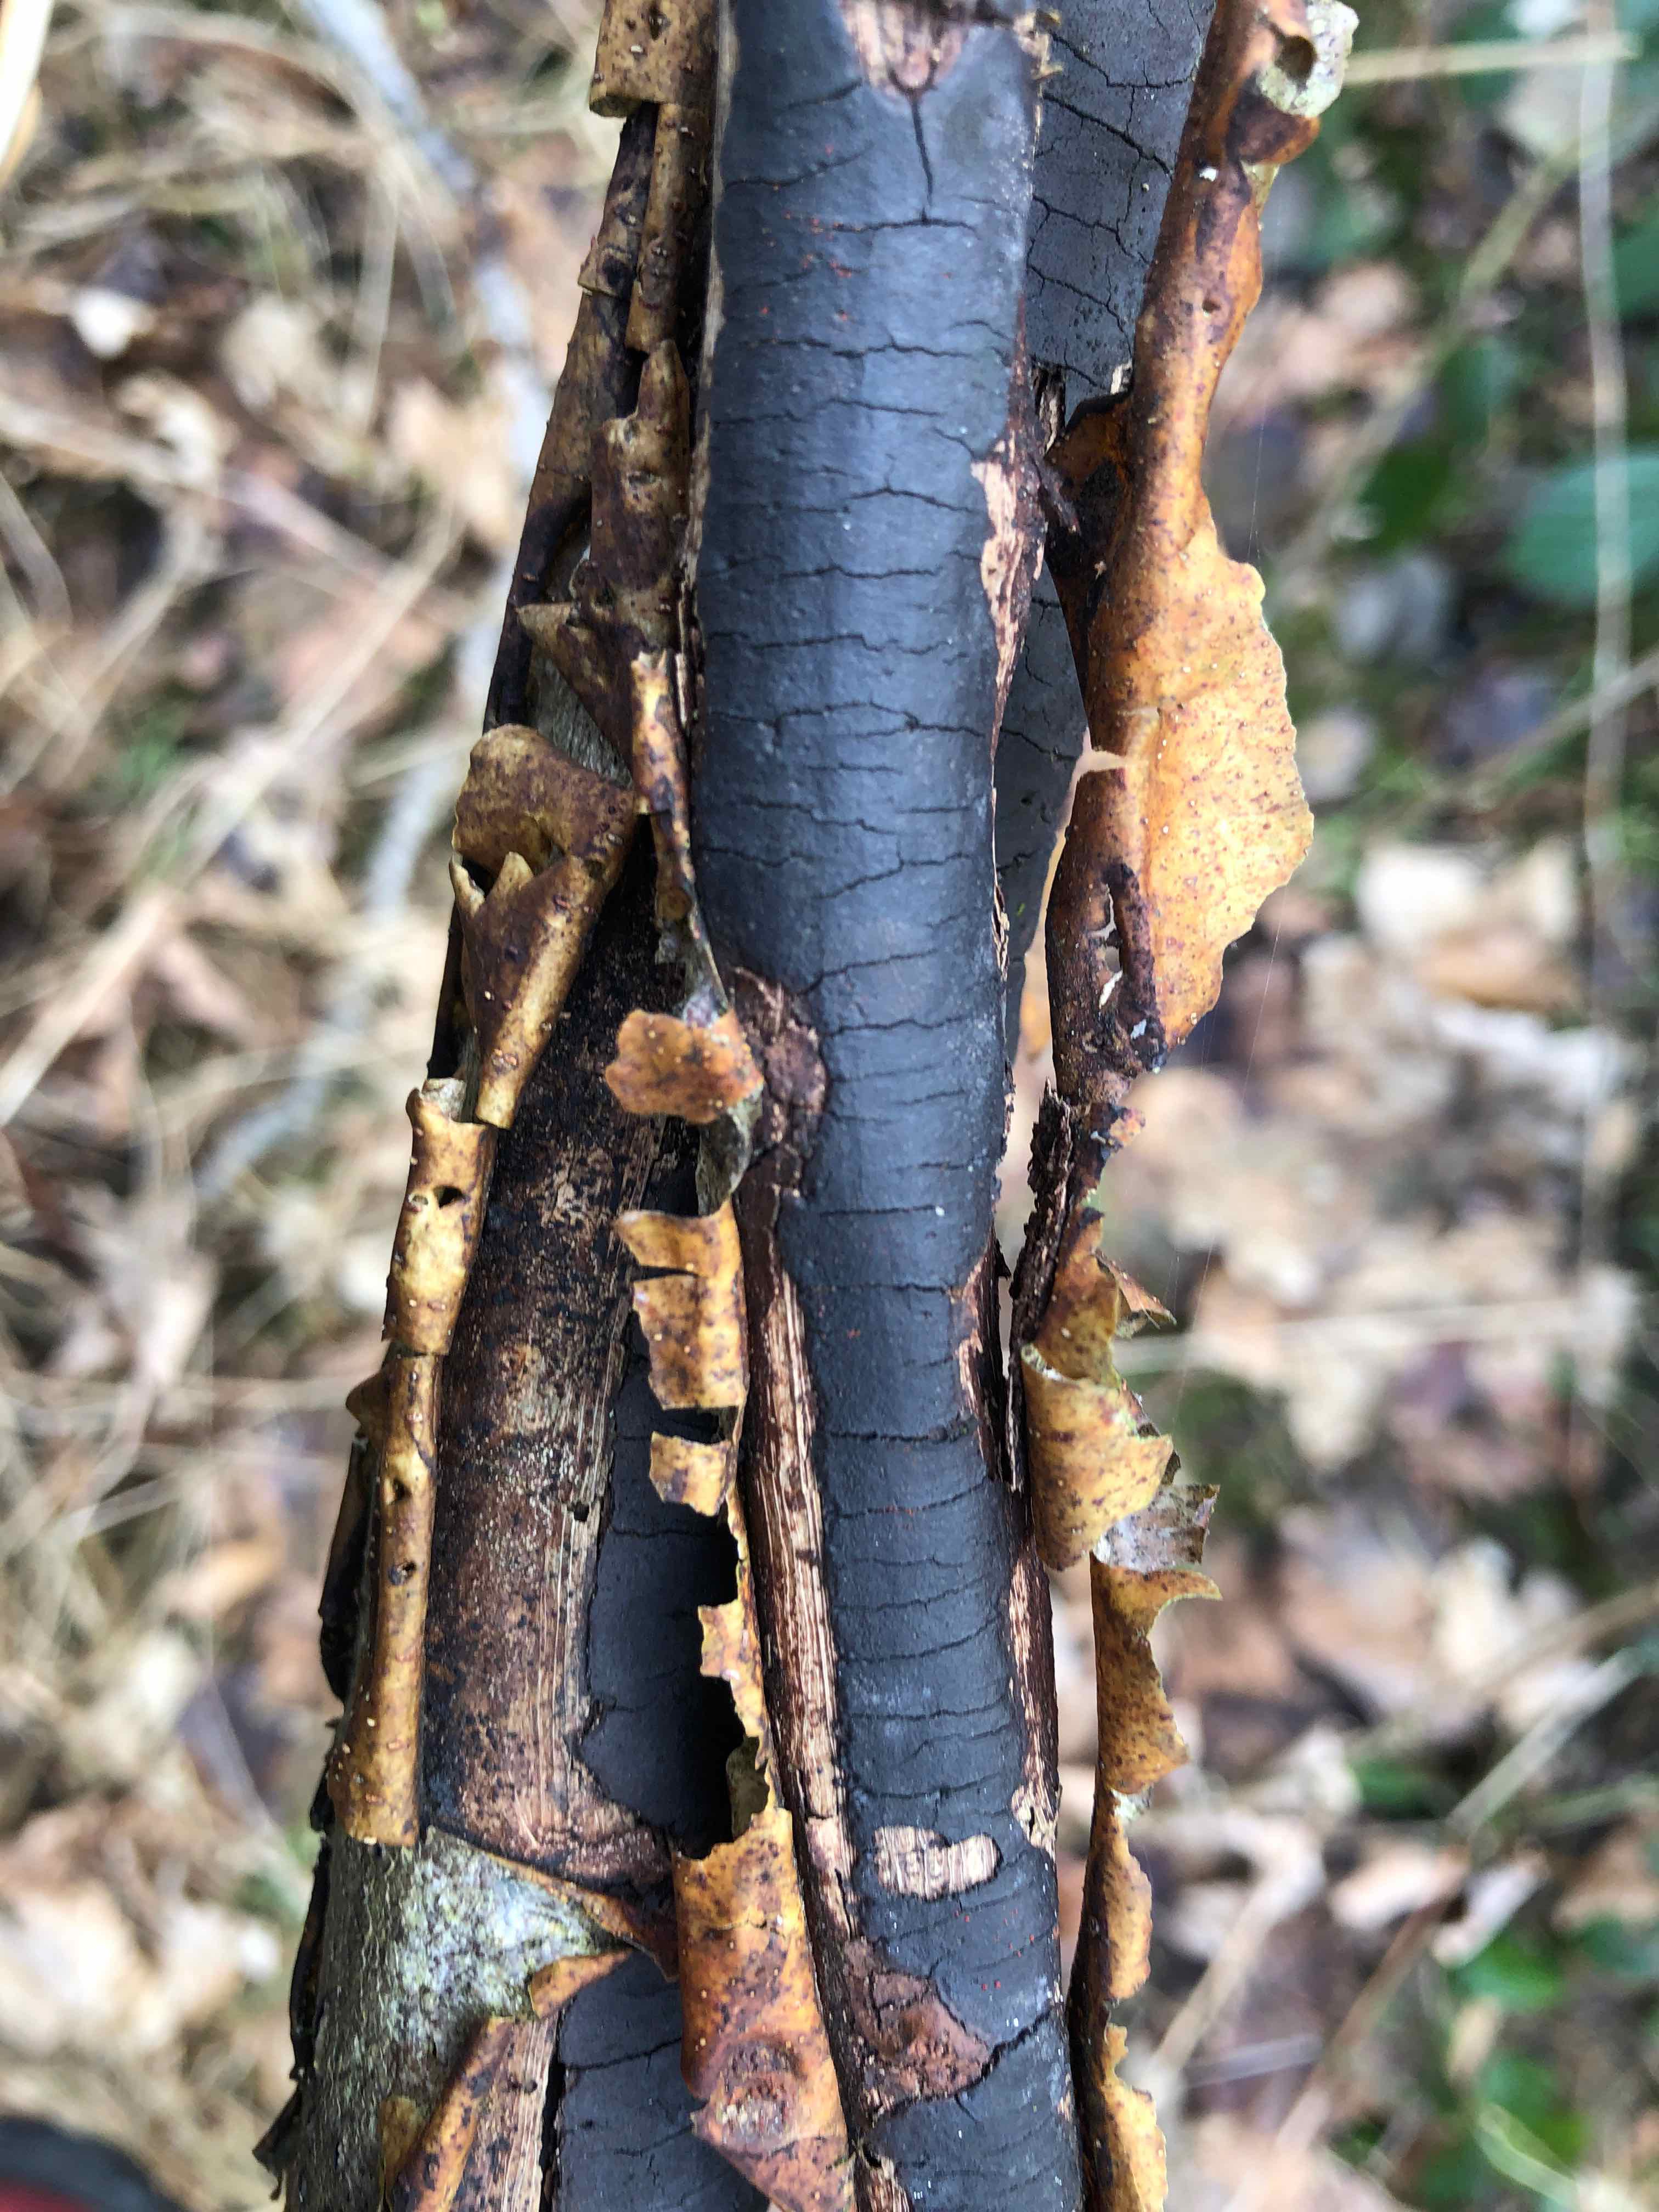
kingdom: Fungi
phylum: Ascomycota
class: Sordariomycetes
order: Xylariales
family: Diatrypaceae
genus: Diatrype
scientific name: Diatrype decorticata
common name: barksprænger-kulskorpe
